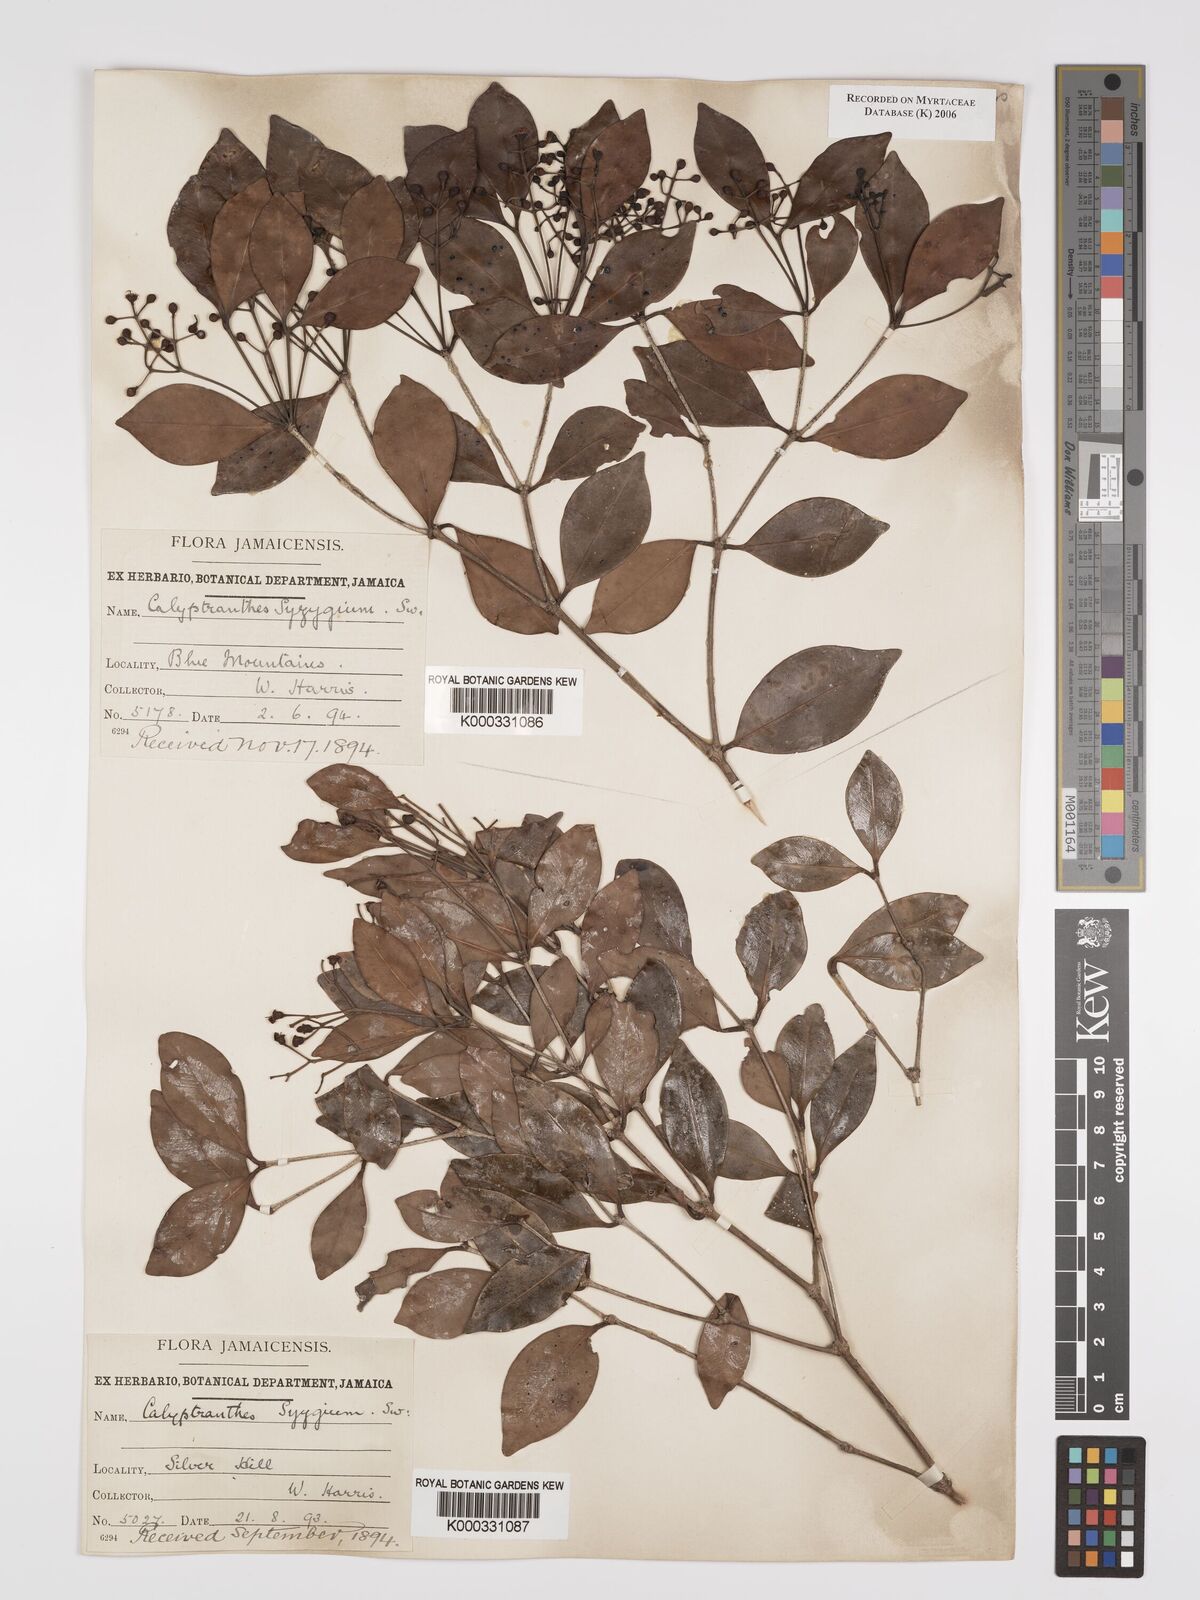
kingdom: Plantae
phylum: Tracheophyta
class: Magnoliopsida
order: Myrtales
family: Myrtaceae
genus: Myrcia
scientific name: Myrcia chytraculia
